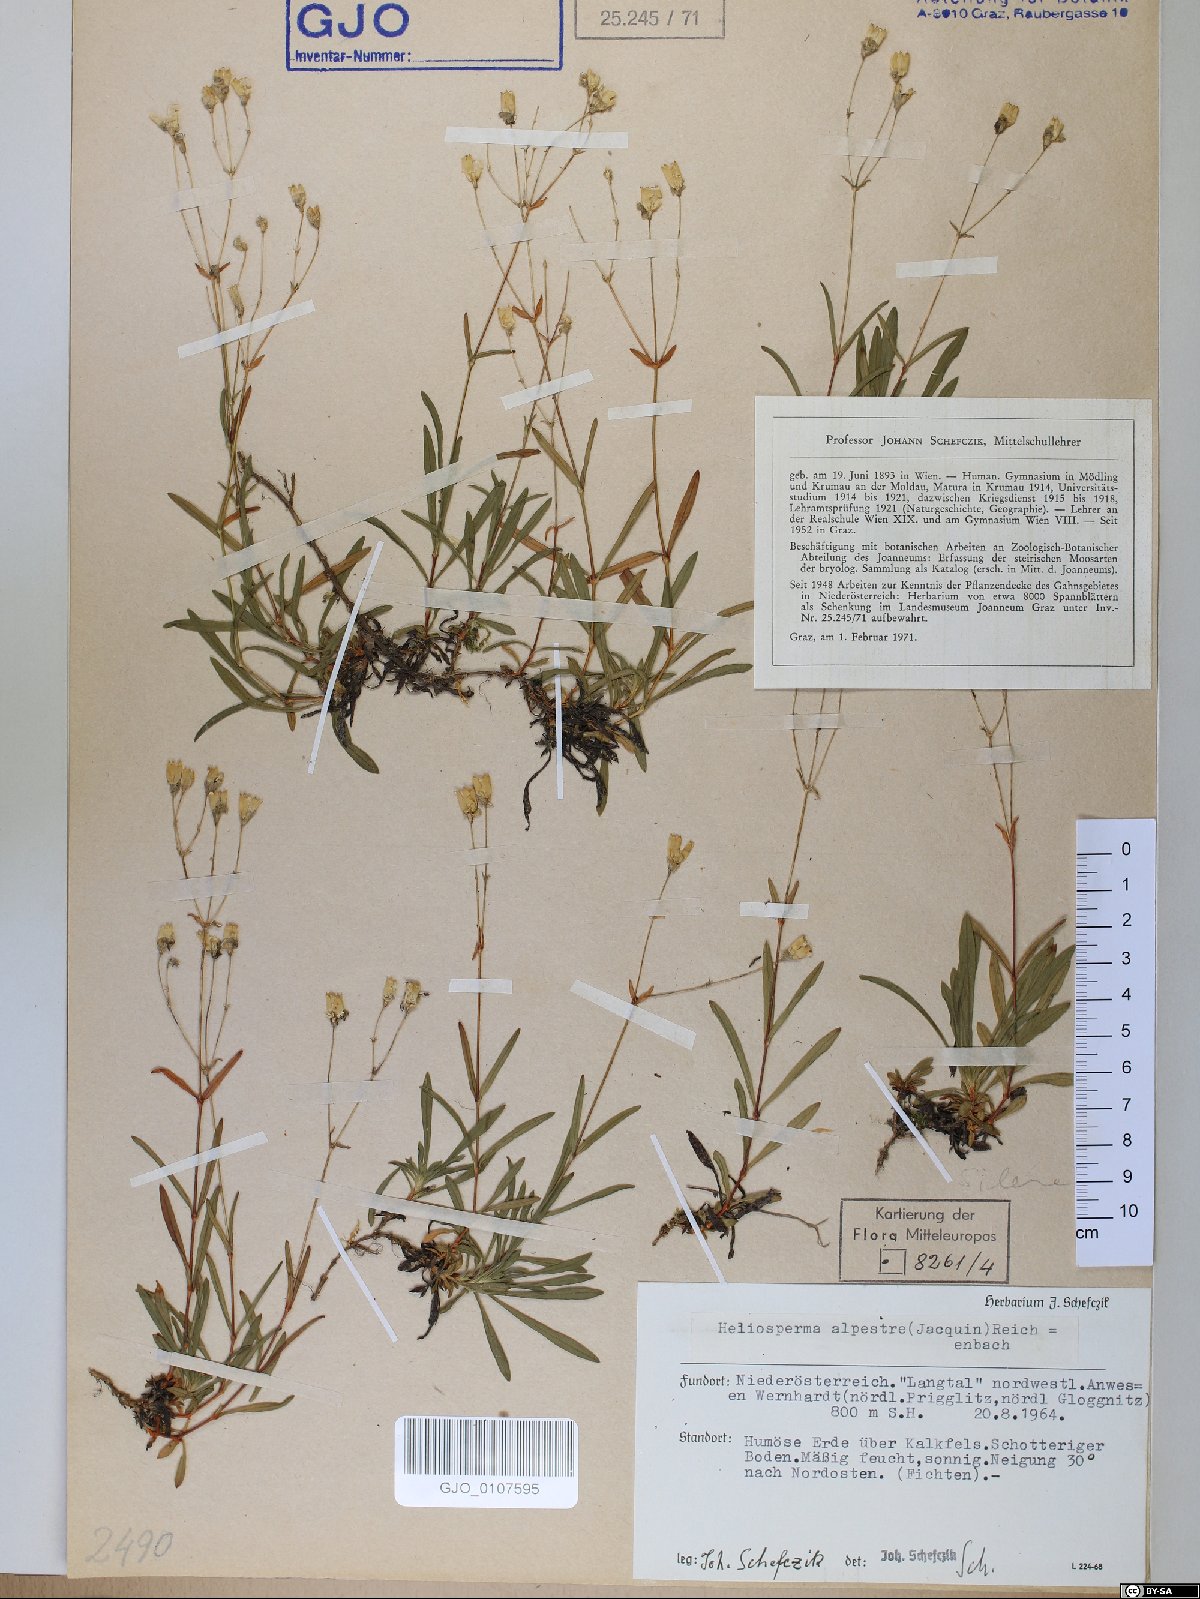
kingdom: Plantae
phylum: Tracheophyta
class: Magnoliopsida
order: Caryophyllales
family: Caryophyllaceae
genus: Heliosperma
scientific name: Heliosperma alpestre
